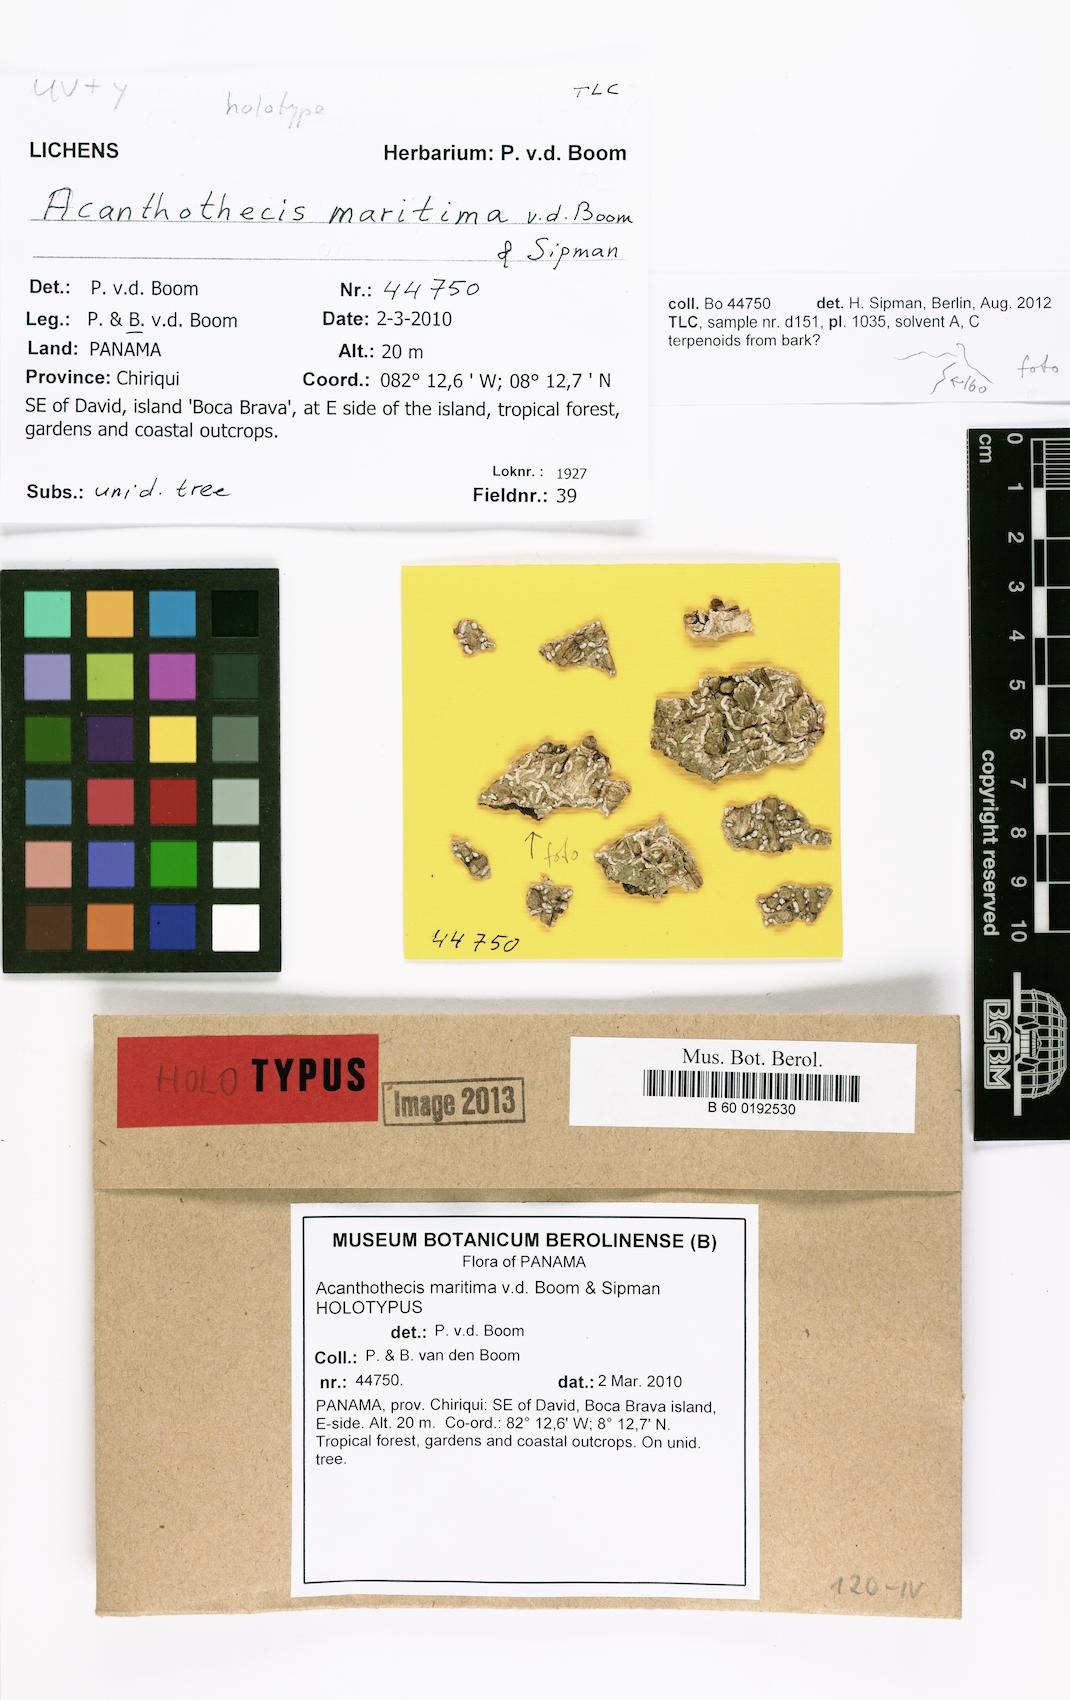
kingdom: Fungi
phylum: Ascomycota
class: Lecanoromycetes
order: Ostropales
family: Graphidaceae
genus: Acanthothecis
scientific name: Acanthothecis maritima
